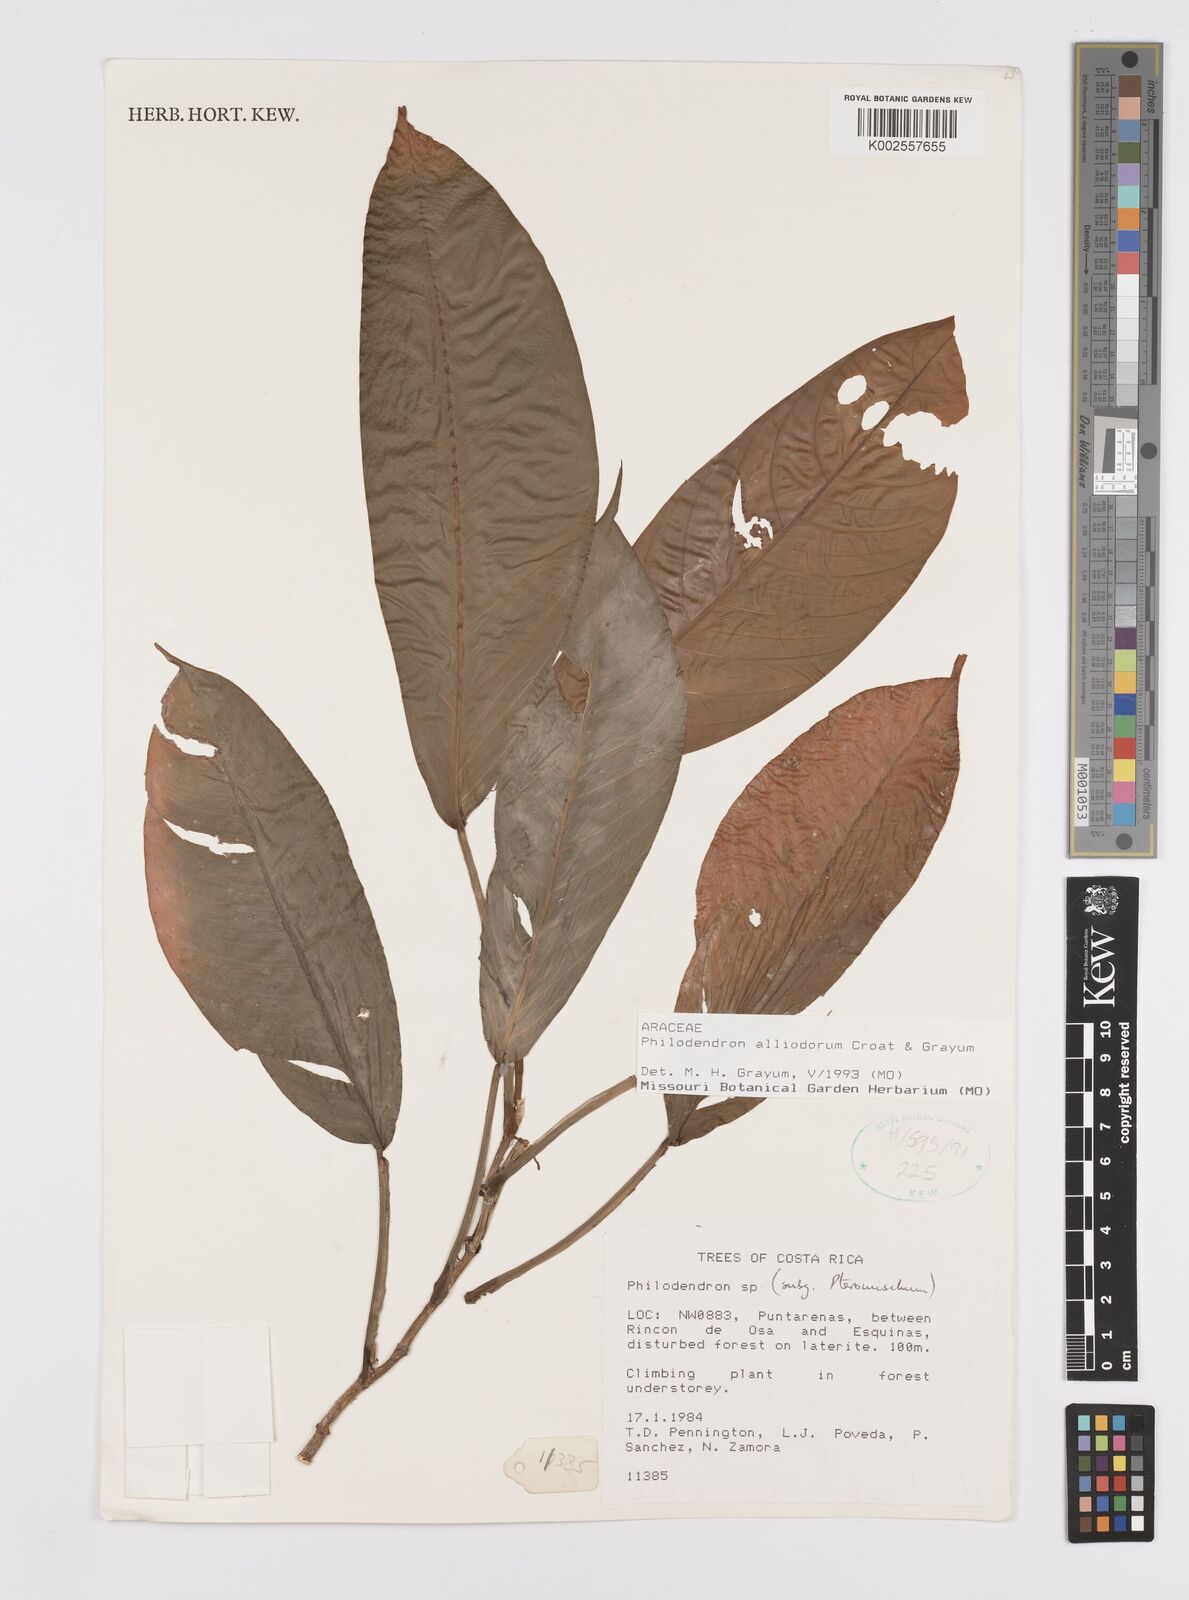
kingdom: Plantae
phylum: Tracheophyta
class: Liliopsida
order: Alismatales
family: Araceae
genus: Philodendron
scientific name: Philodendron alliodorum
